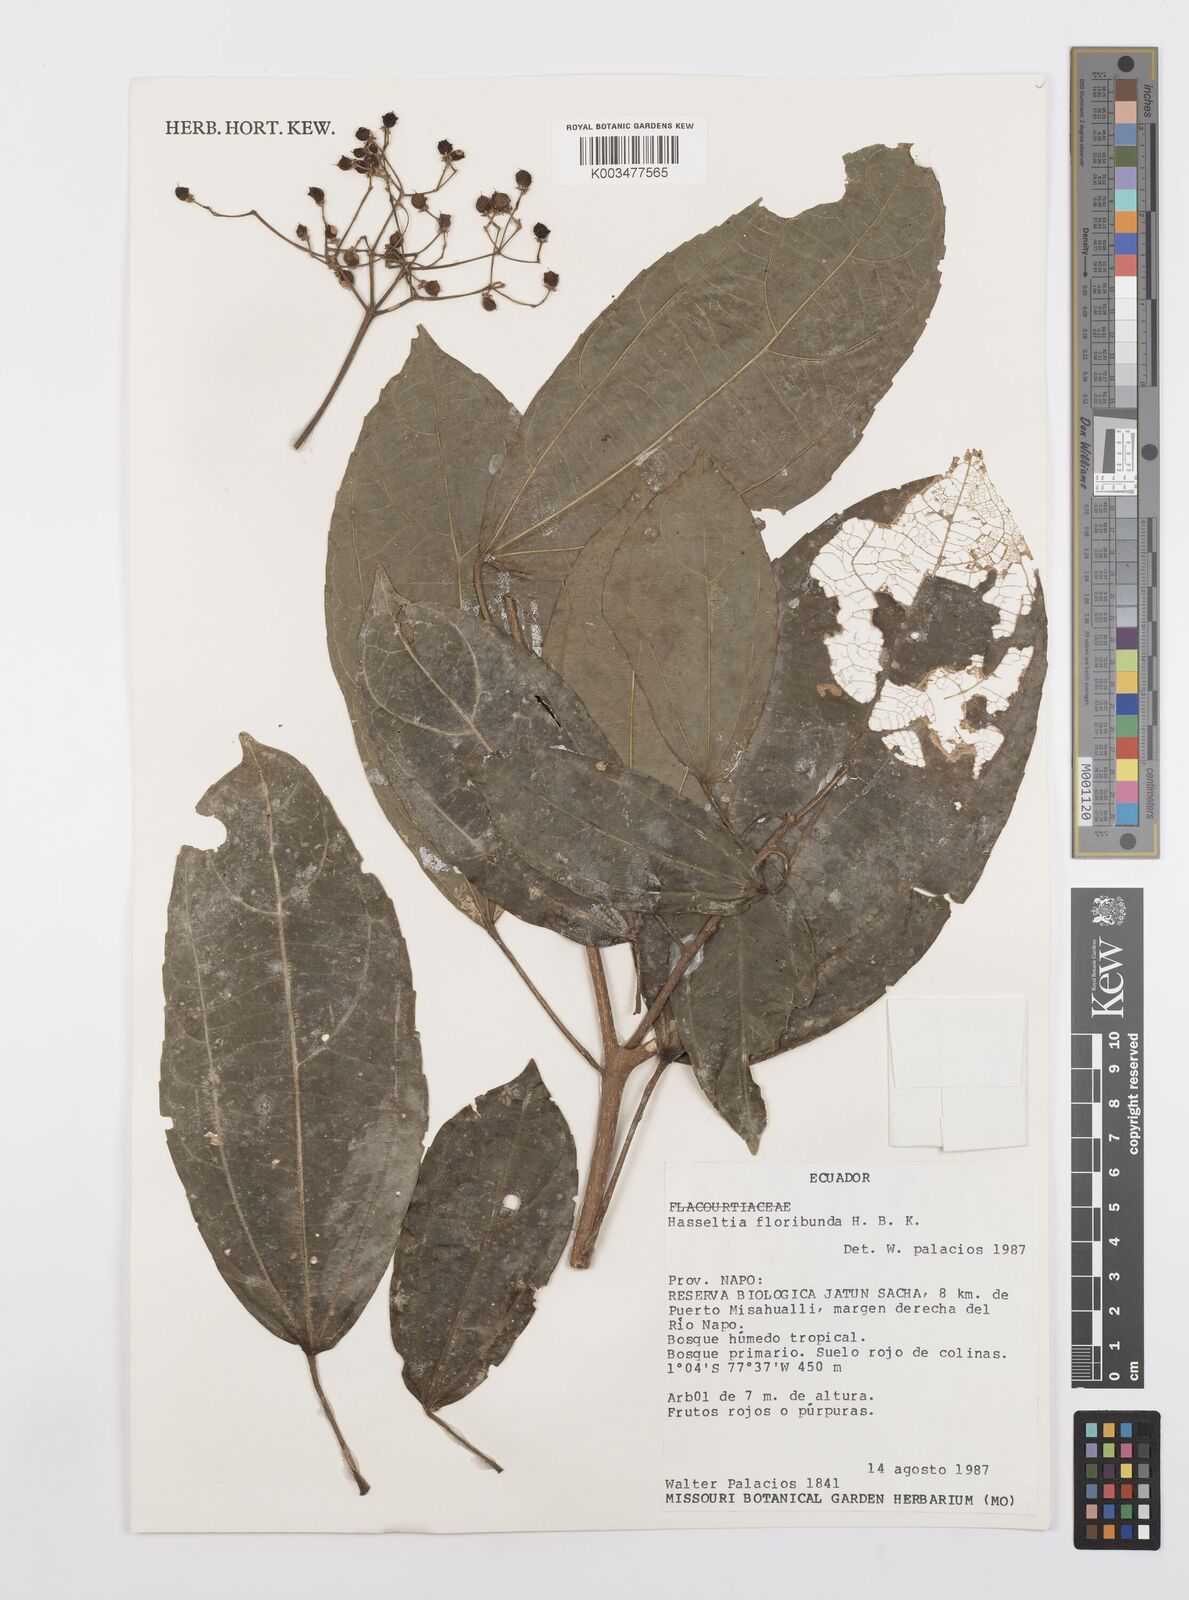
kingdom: Plantae
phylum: Tracheophyta
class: Magnoliopsida
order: Malpighiales
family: Salicaceae
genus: Hasseltia
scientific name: Hasseltia floribunda
